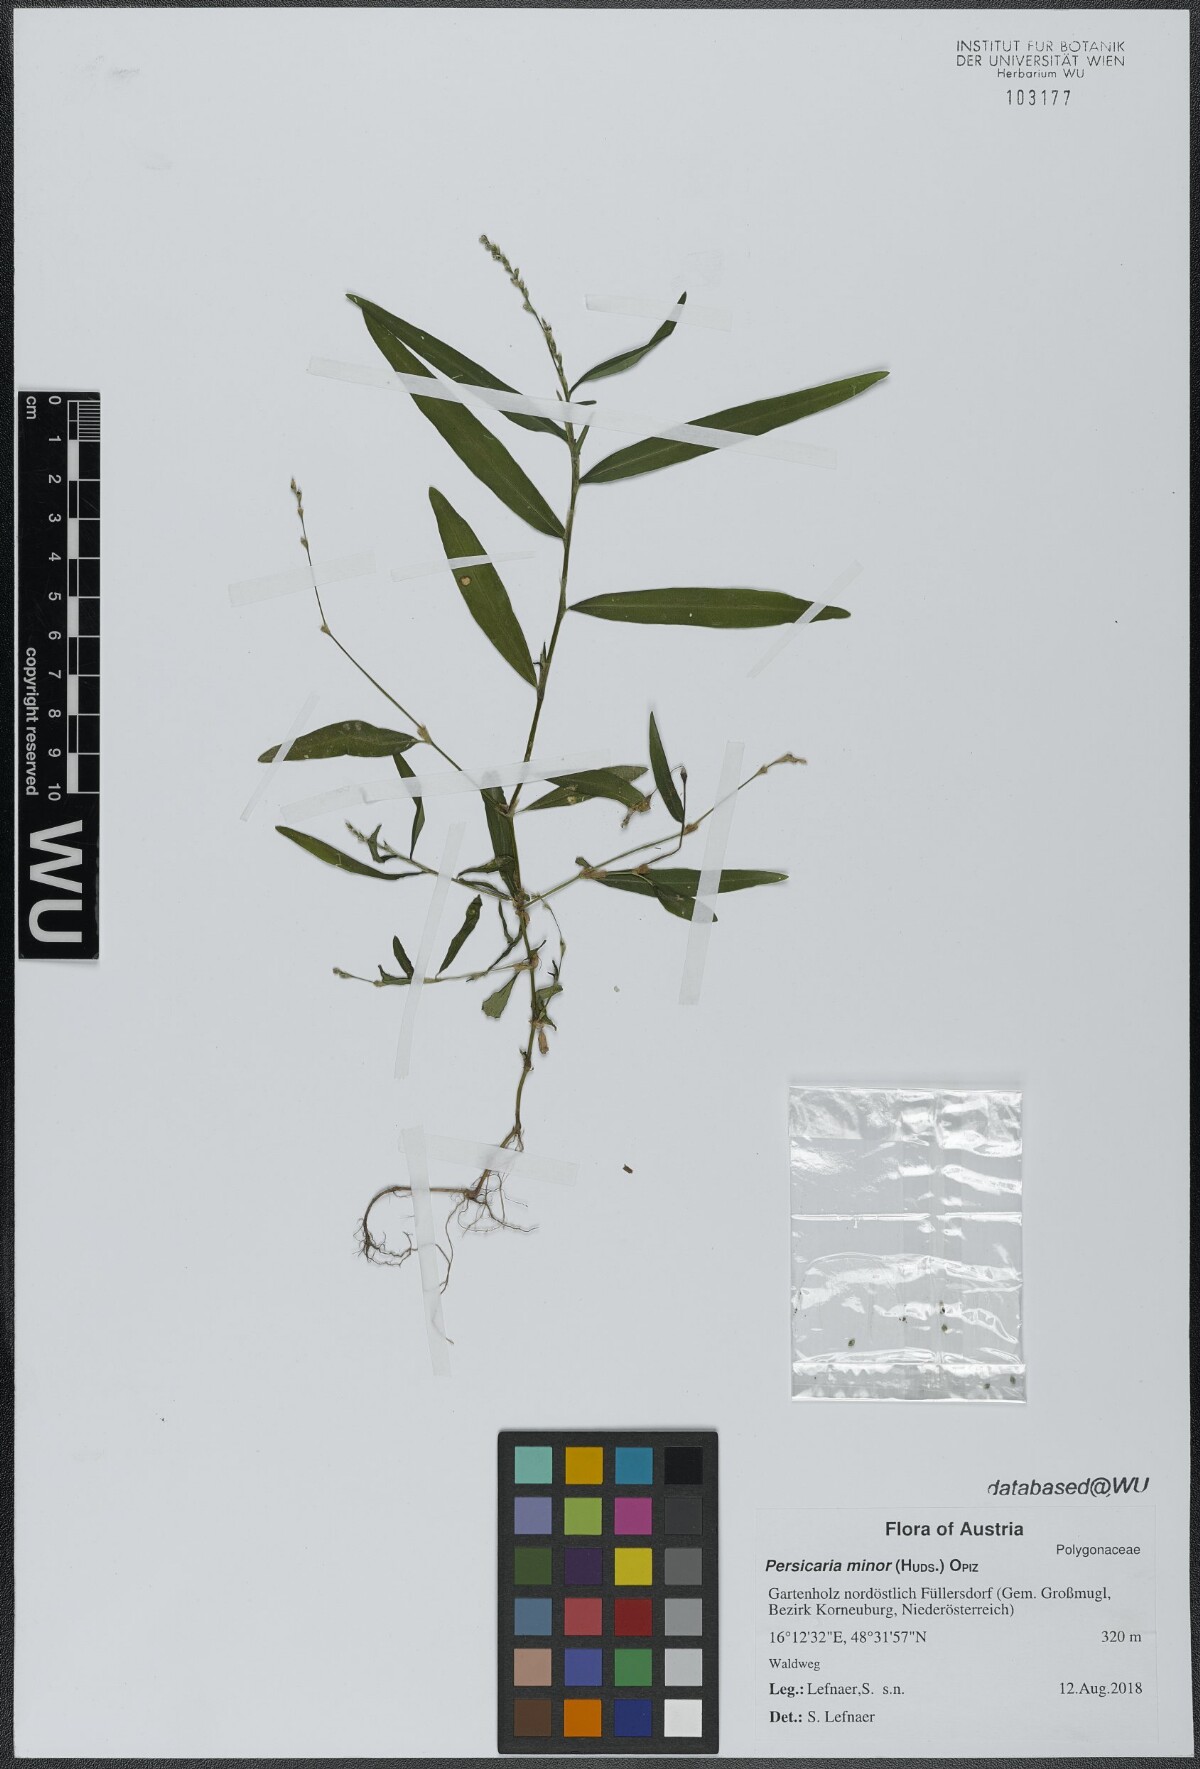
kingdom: Plantae
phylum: Tracheophyta
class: Magnoliopsida
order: Caryophyllales
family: Polygonaceae
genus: Persicaria
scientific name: Persicaria minor
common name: Small water-pepper
